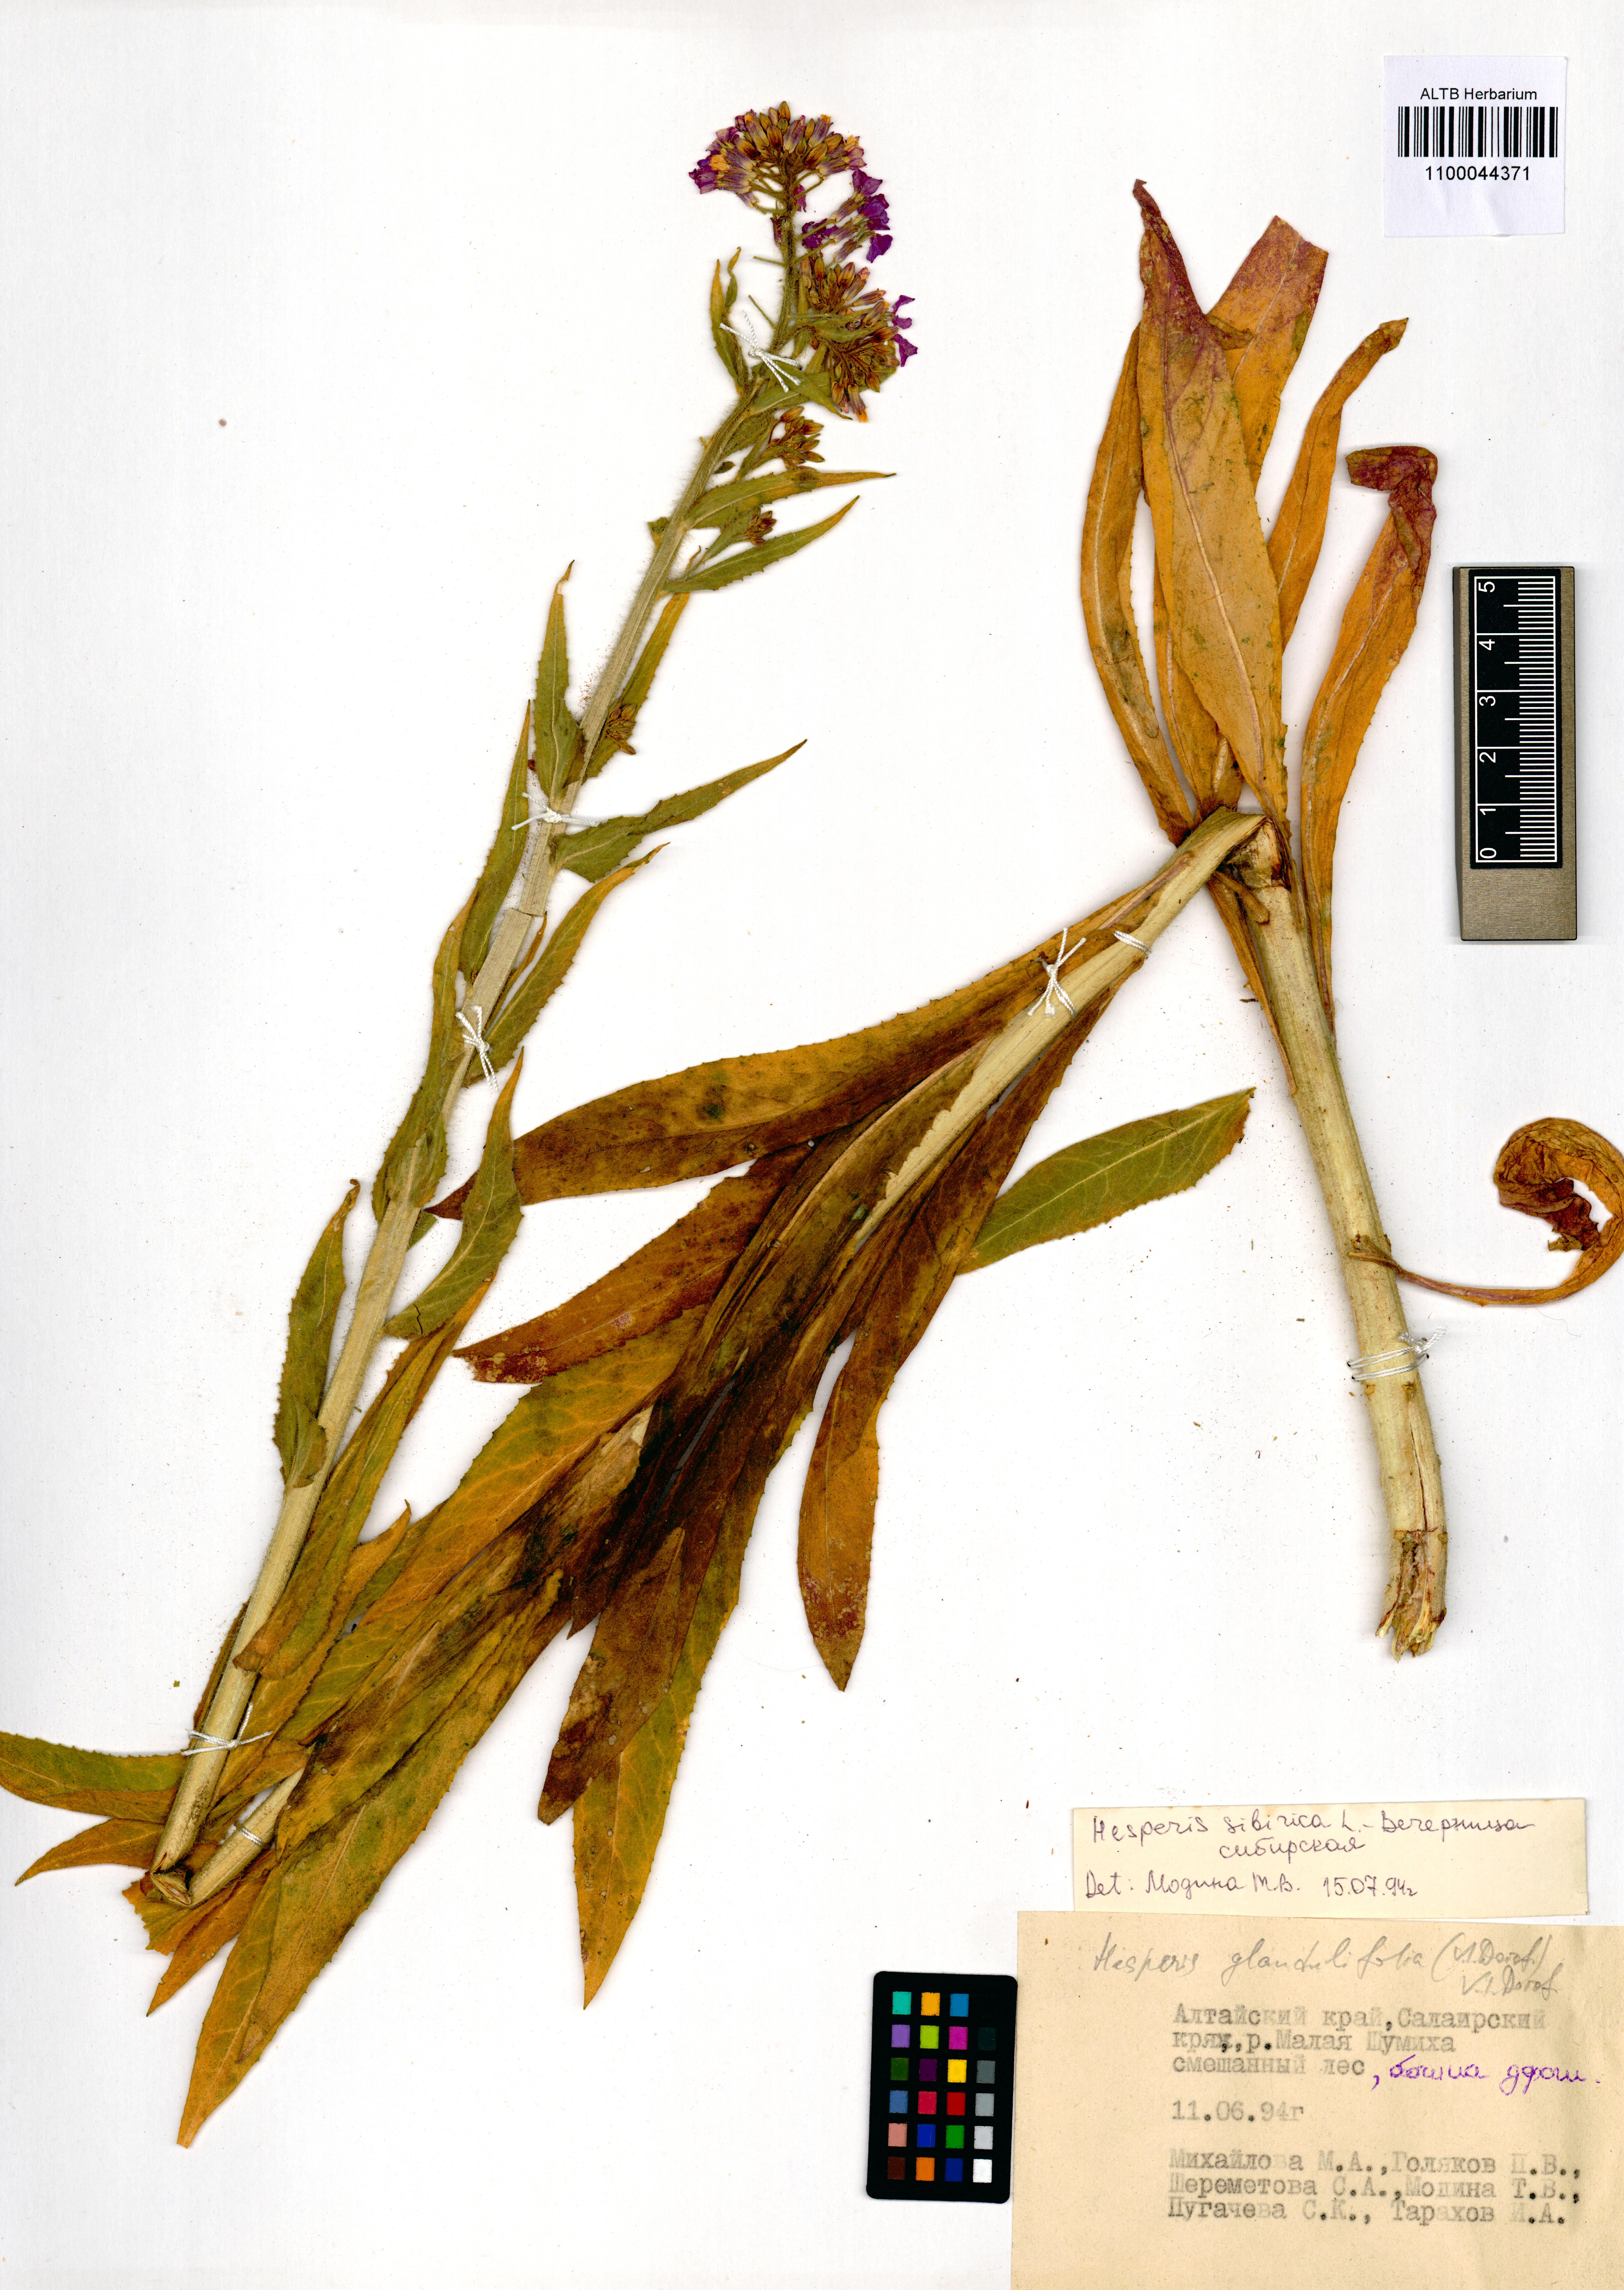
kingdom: Plantae
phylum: Tracheophyta
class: Magnoliopsida
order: Brassicales
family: Brassicaceae
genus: Hesperis
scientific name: Hesperis sibirica
